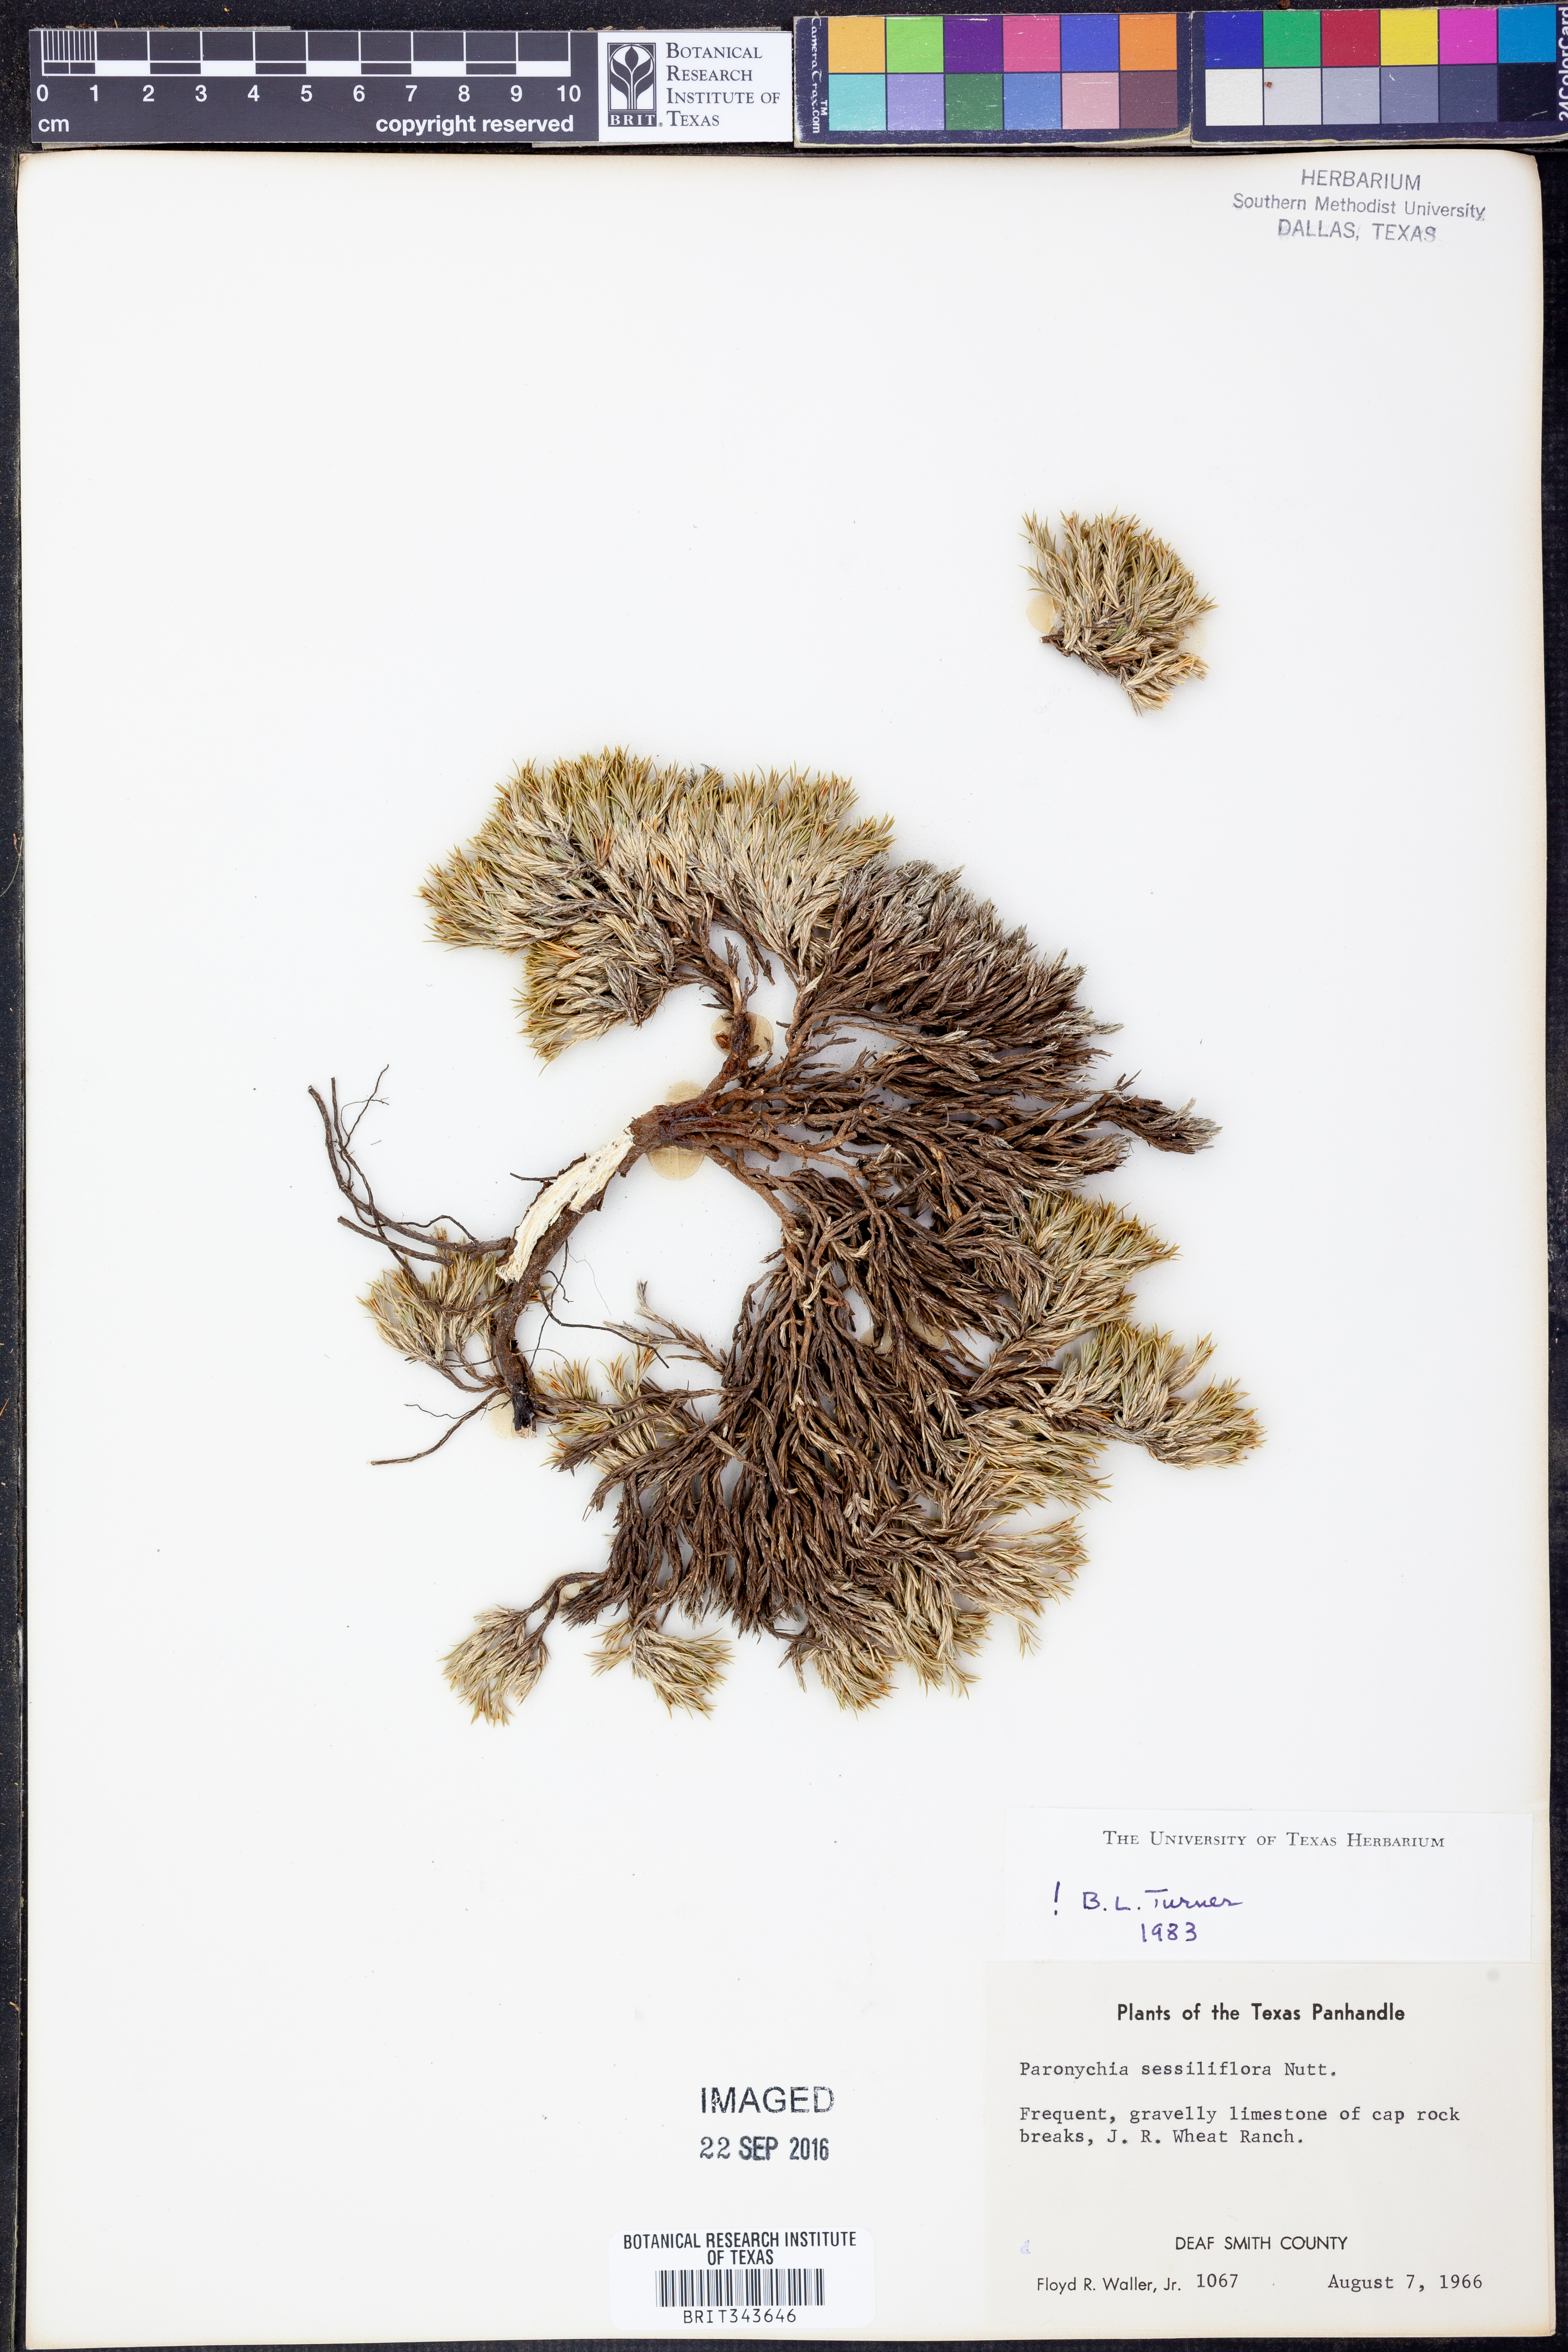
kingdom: Plantae
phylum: Tracheophyta
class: Magnoliopsida
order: Caryophyllales
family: Caryophyllaceae
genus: Paronychia
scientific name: Paronychia sessiliflora
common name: Creeping nailwort
